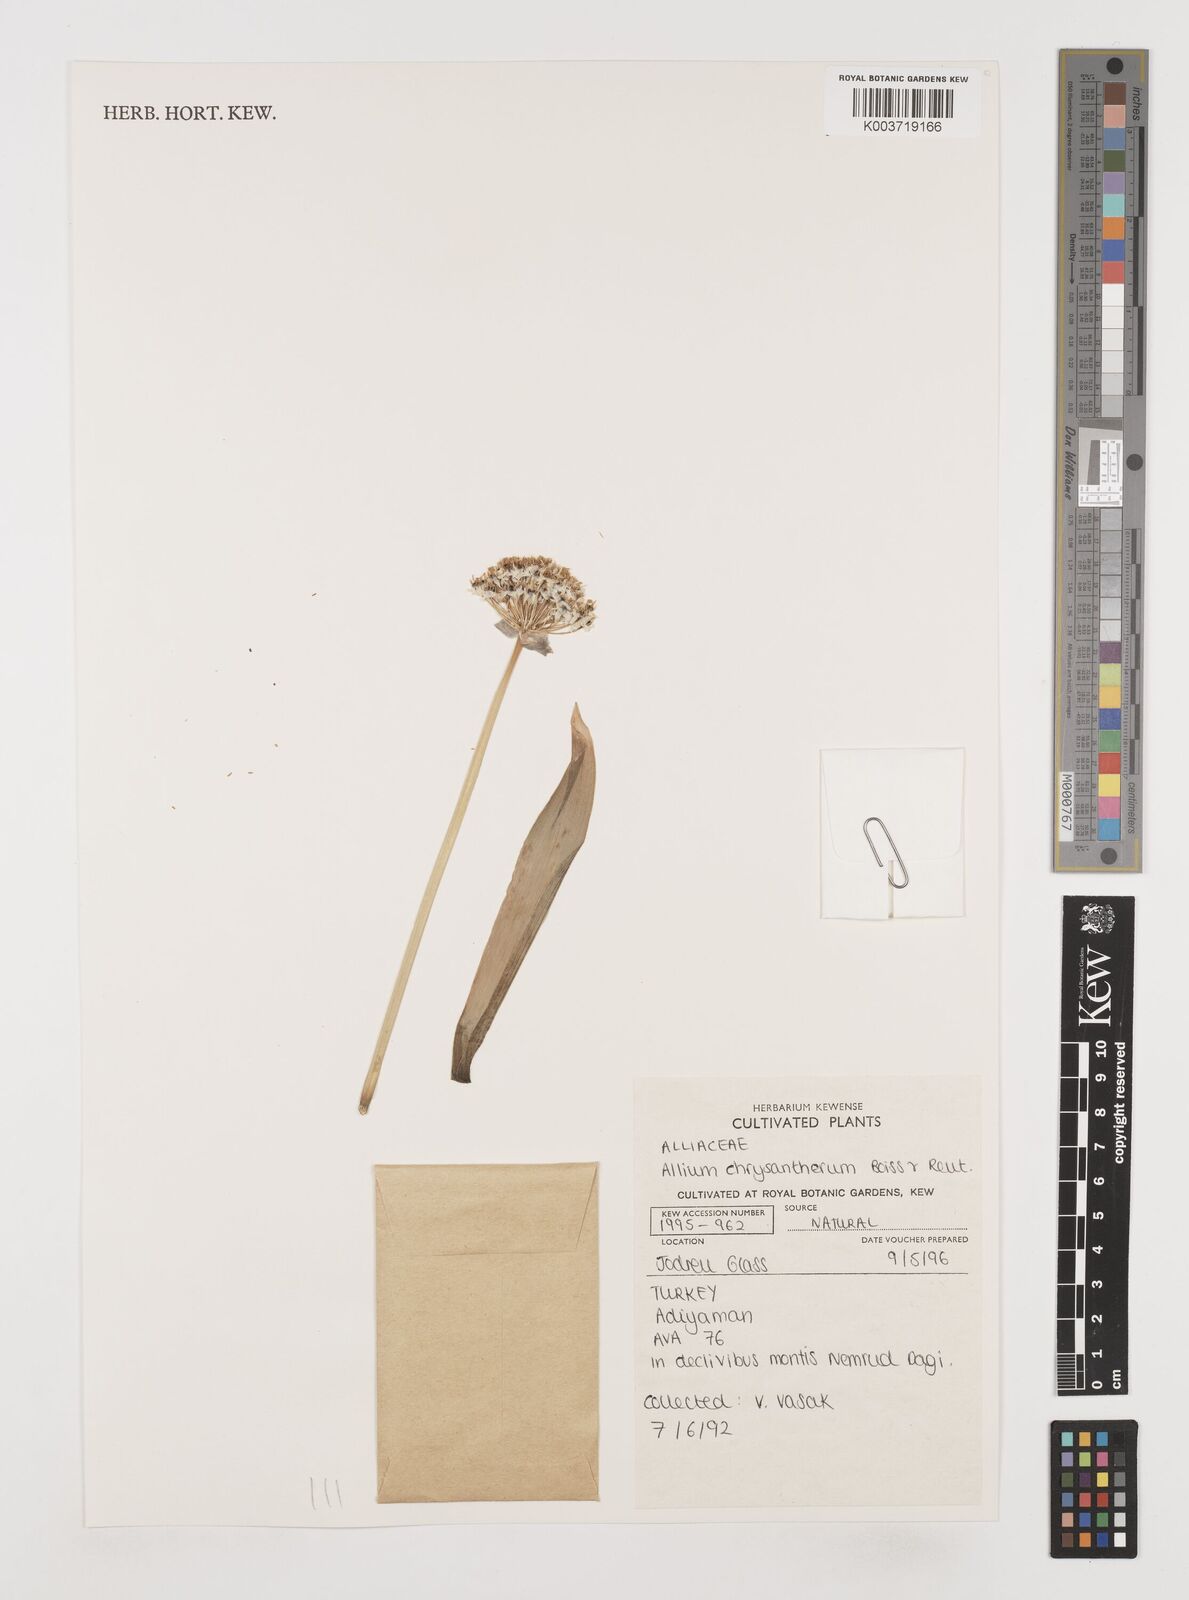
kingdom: Plantae
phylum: Tracheophyta
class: Liliopsida
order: Asparagales
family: Amaryllidaceae
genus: Allium
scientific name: Allium chrysantherum
